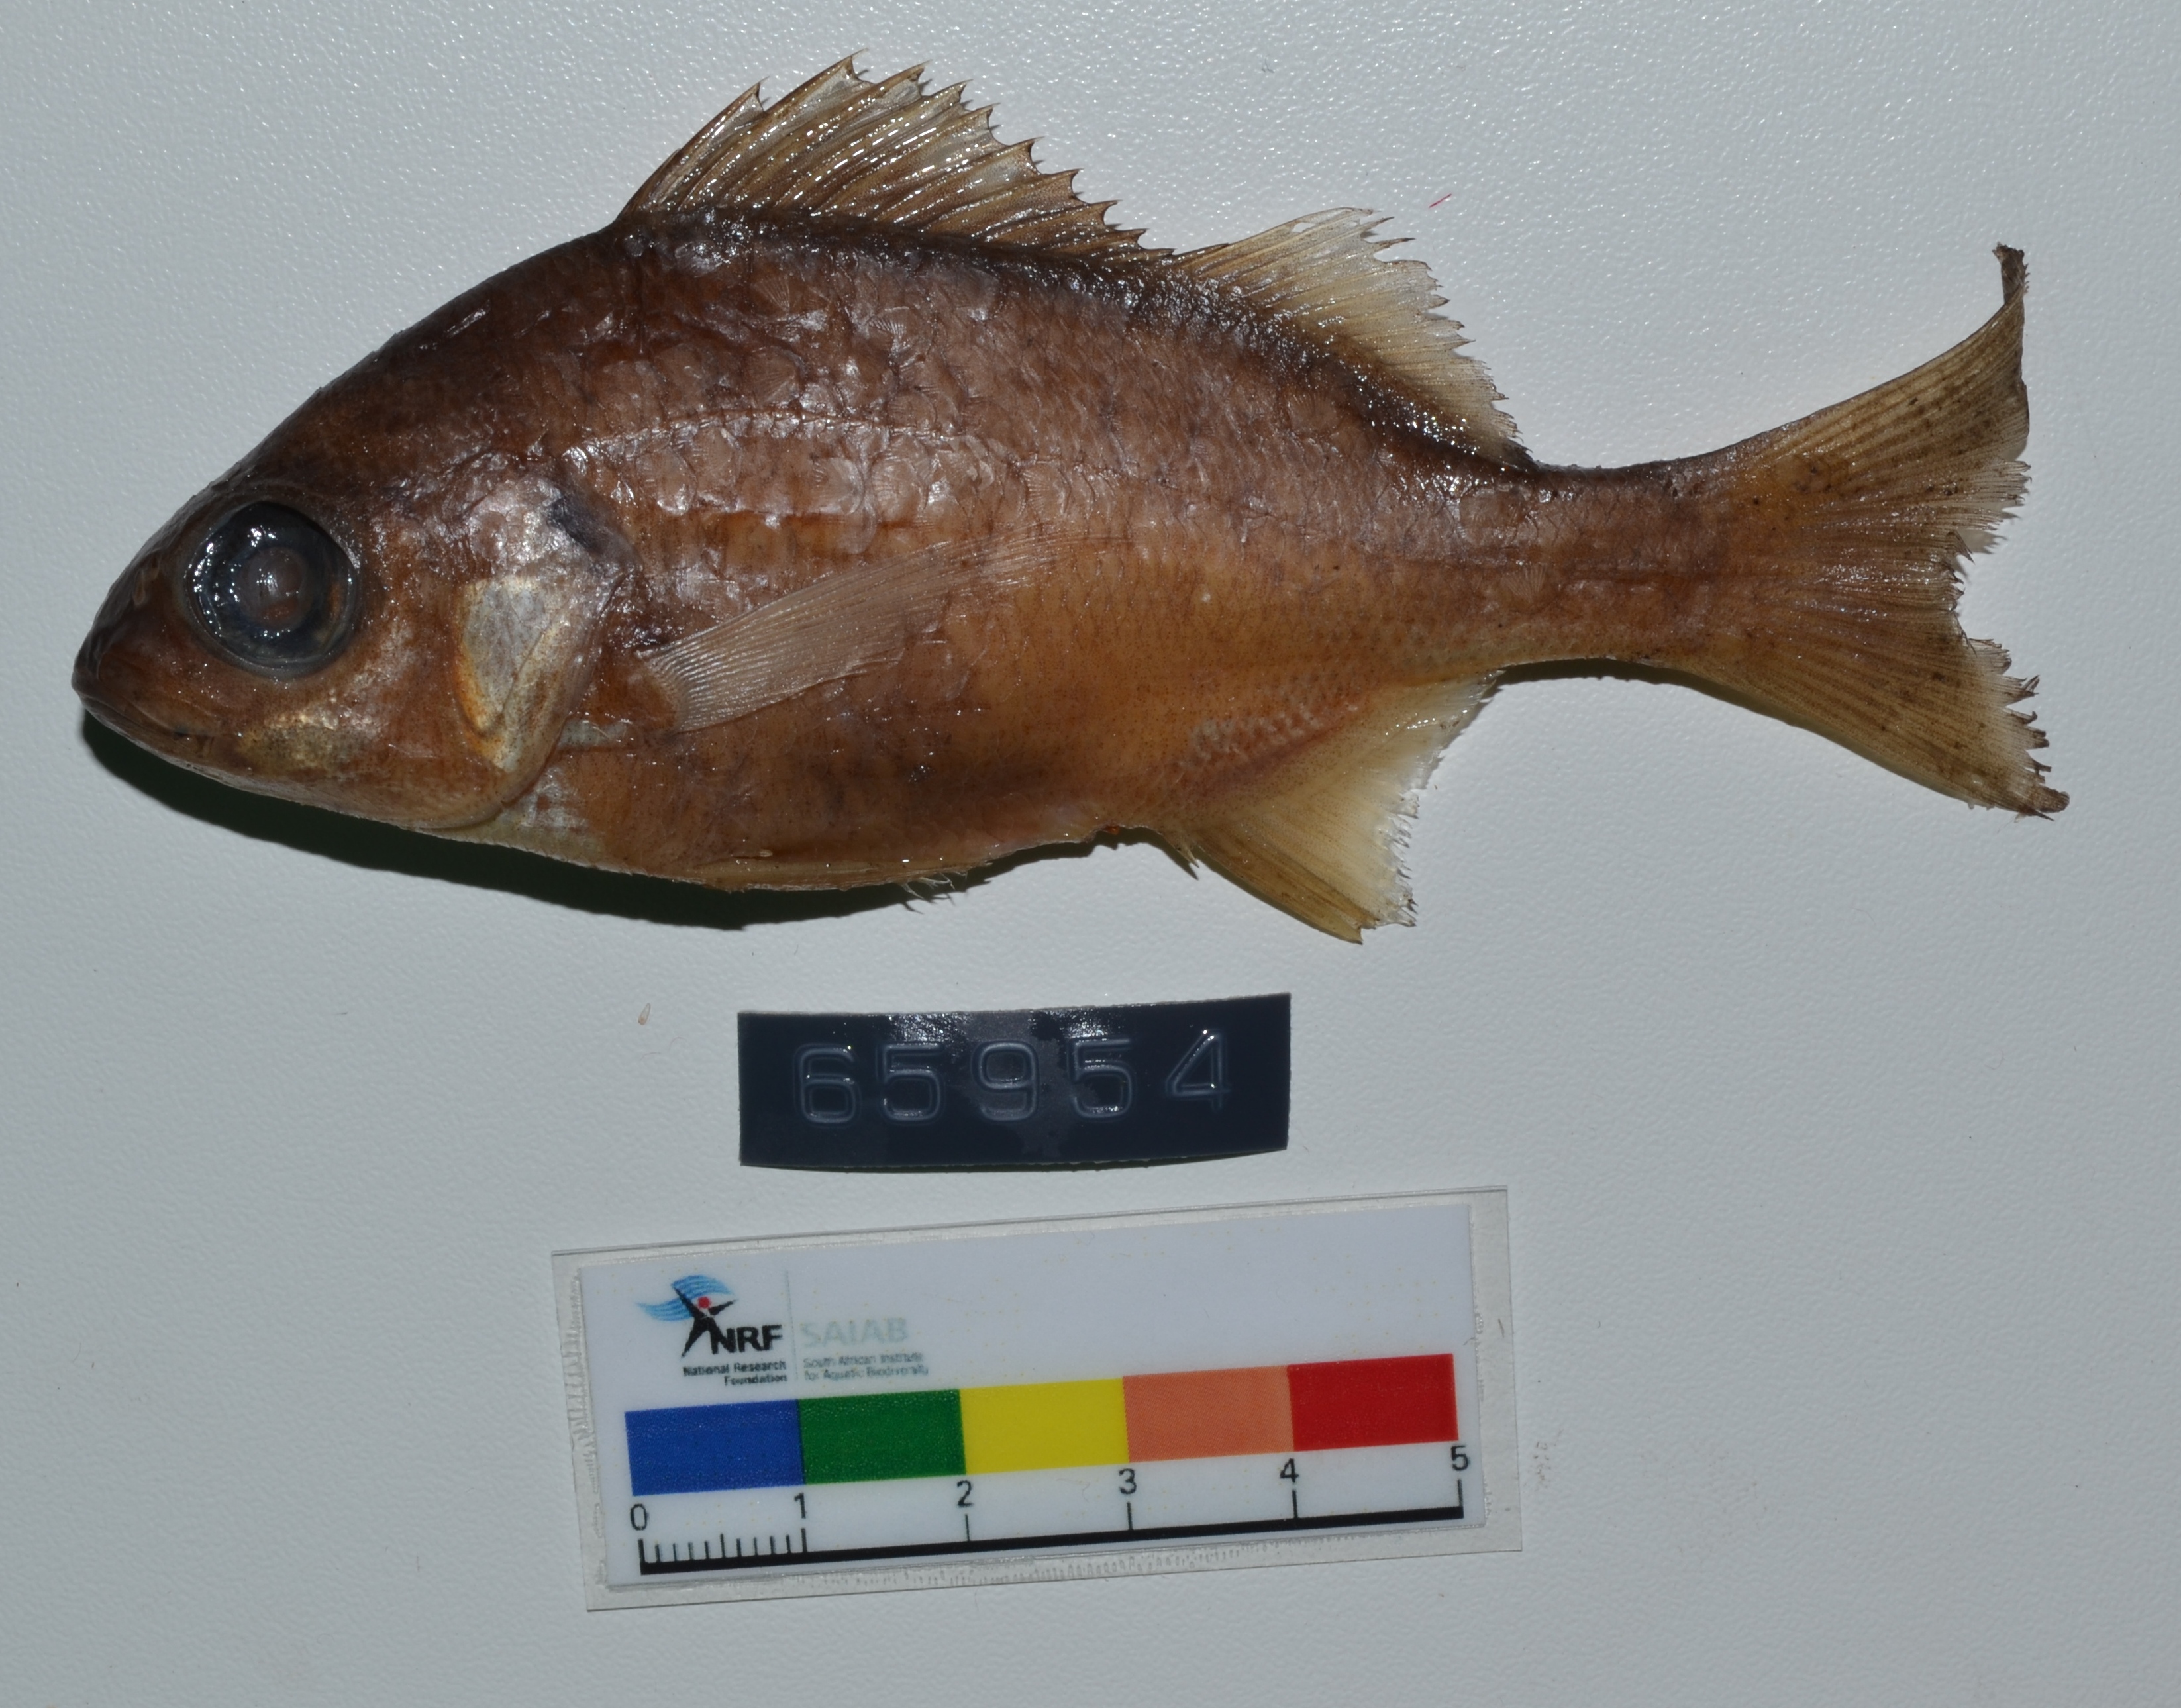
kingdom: Animalia
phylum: Chordata
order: Perciformes
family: Haemulidae
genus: Pomadasys
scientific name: Pomadasys incisus
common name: Bastard grunt
